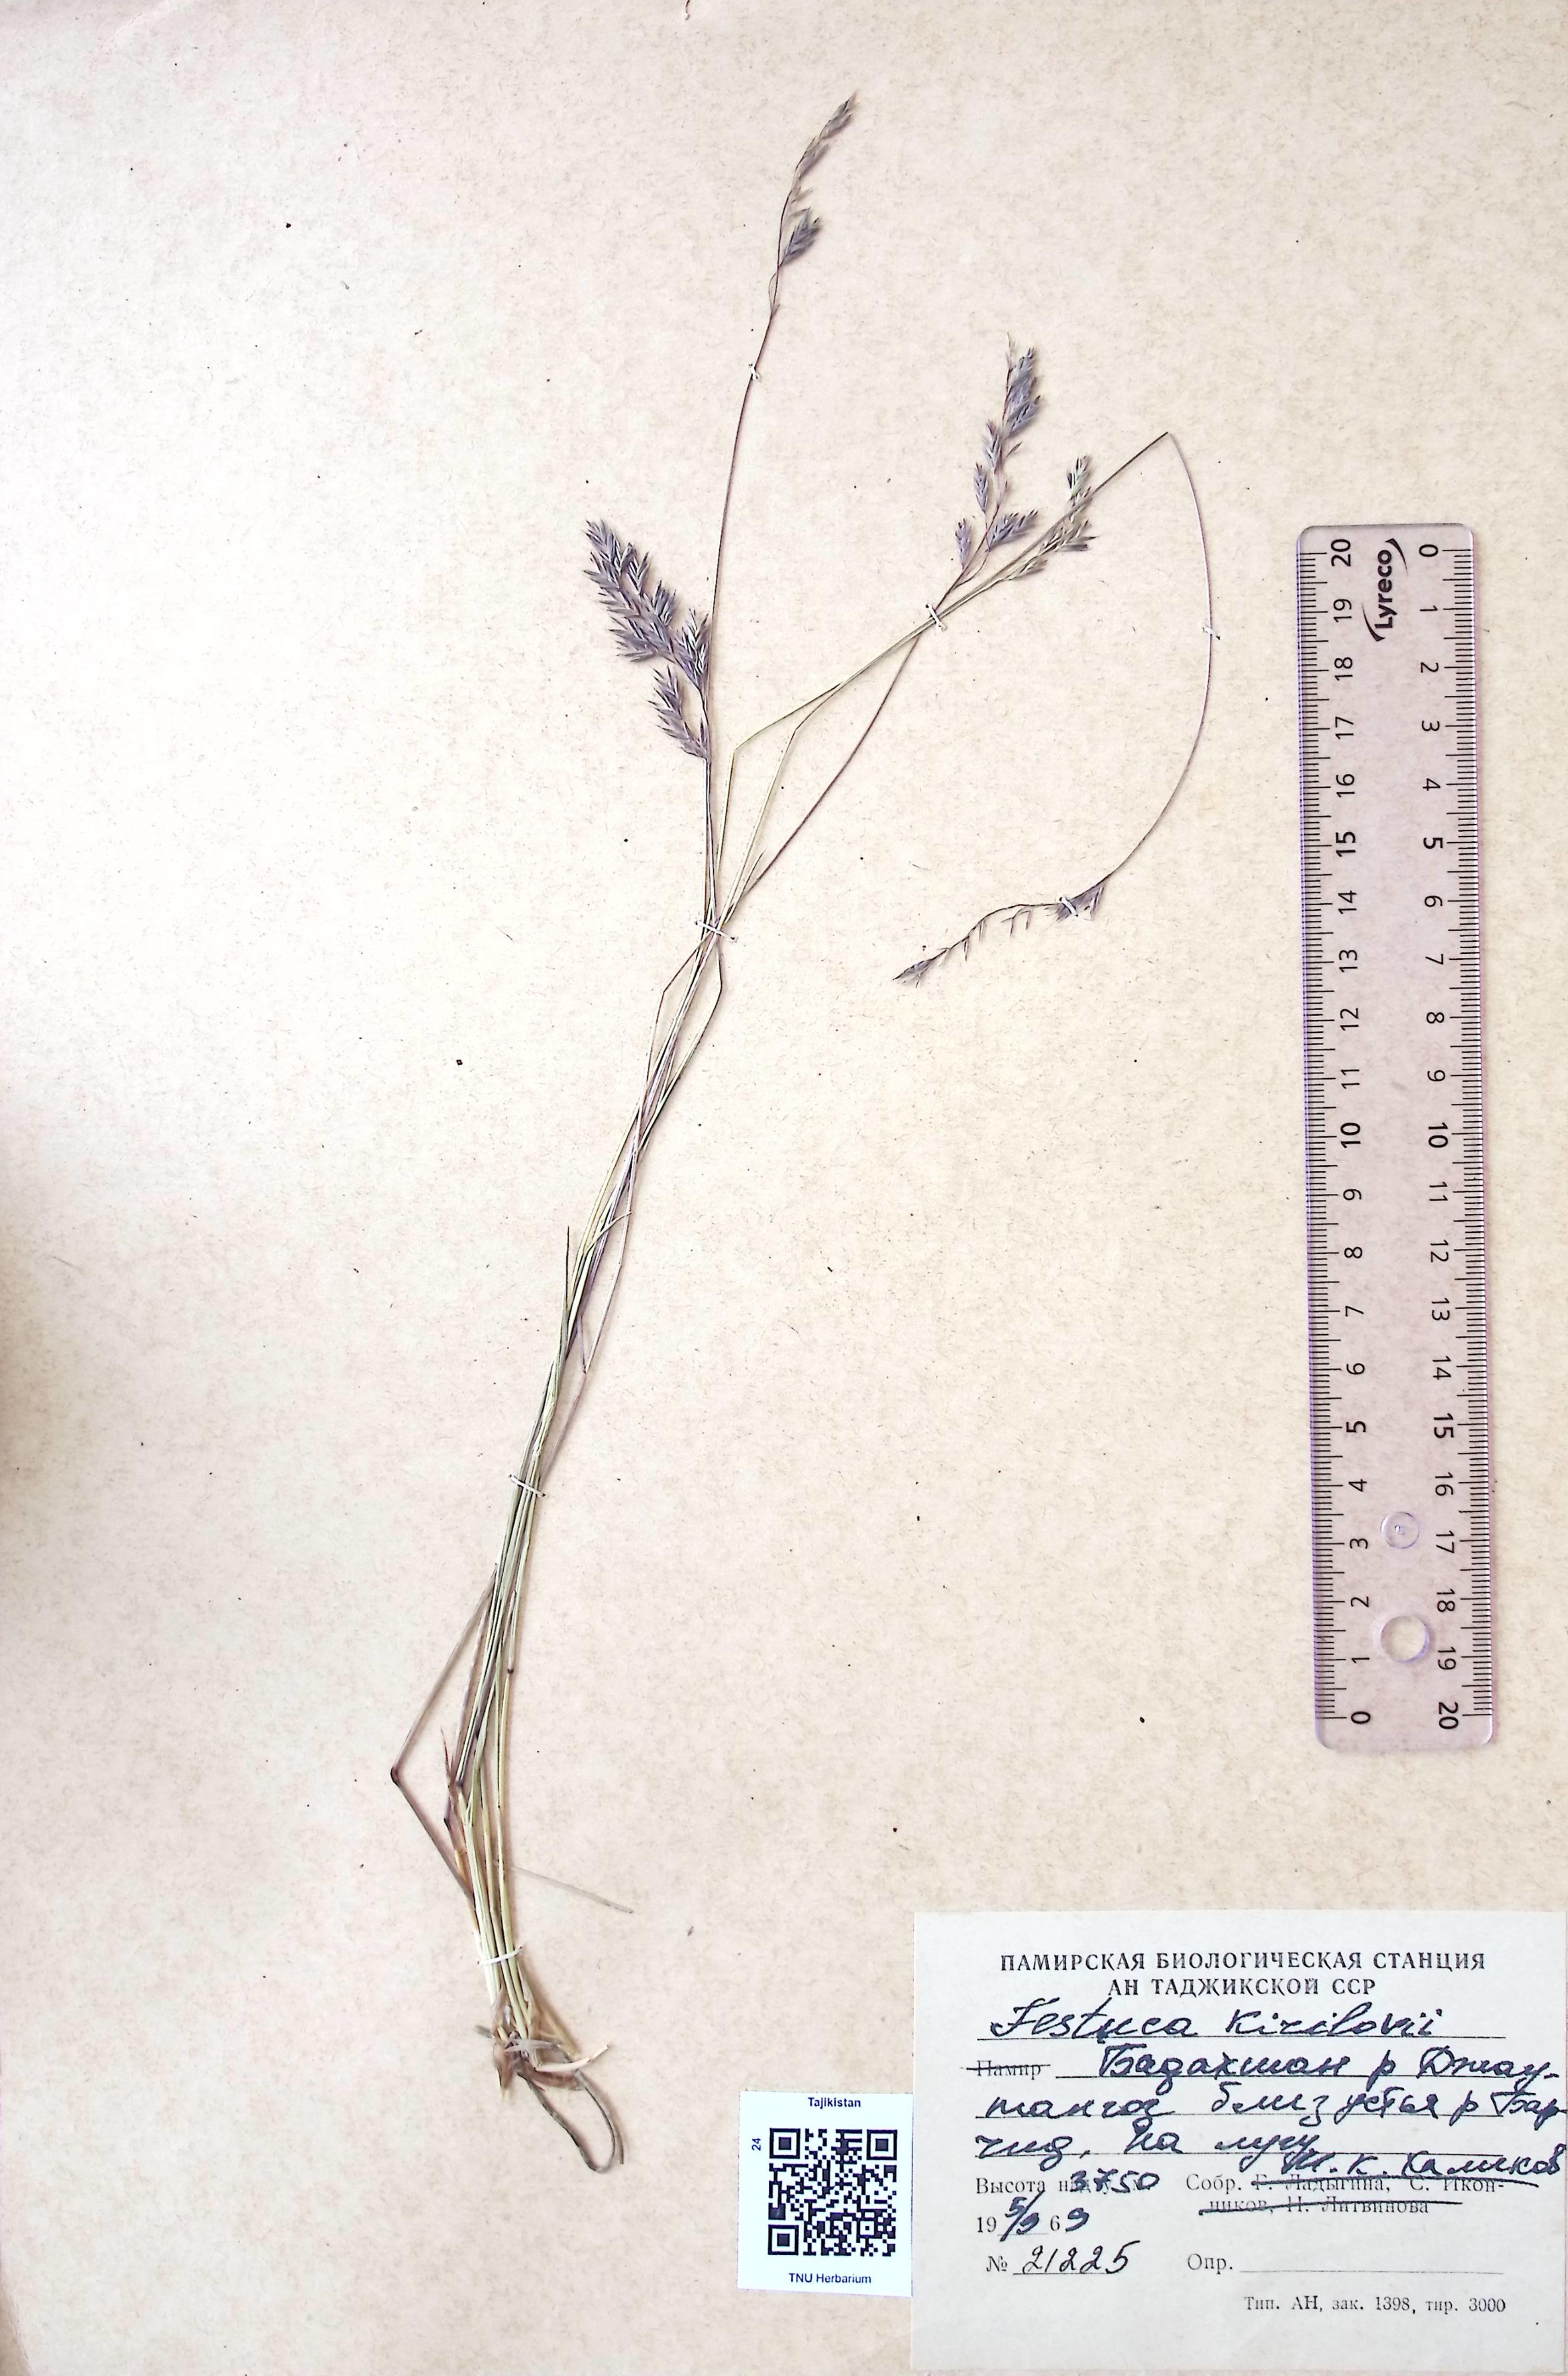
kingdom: Plantae
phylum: Tracheophyta
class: Liliopsida
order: Poales
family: Poaceae
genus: Festuca
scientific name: Festuca rubra
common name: Red fescue
